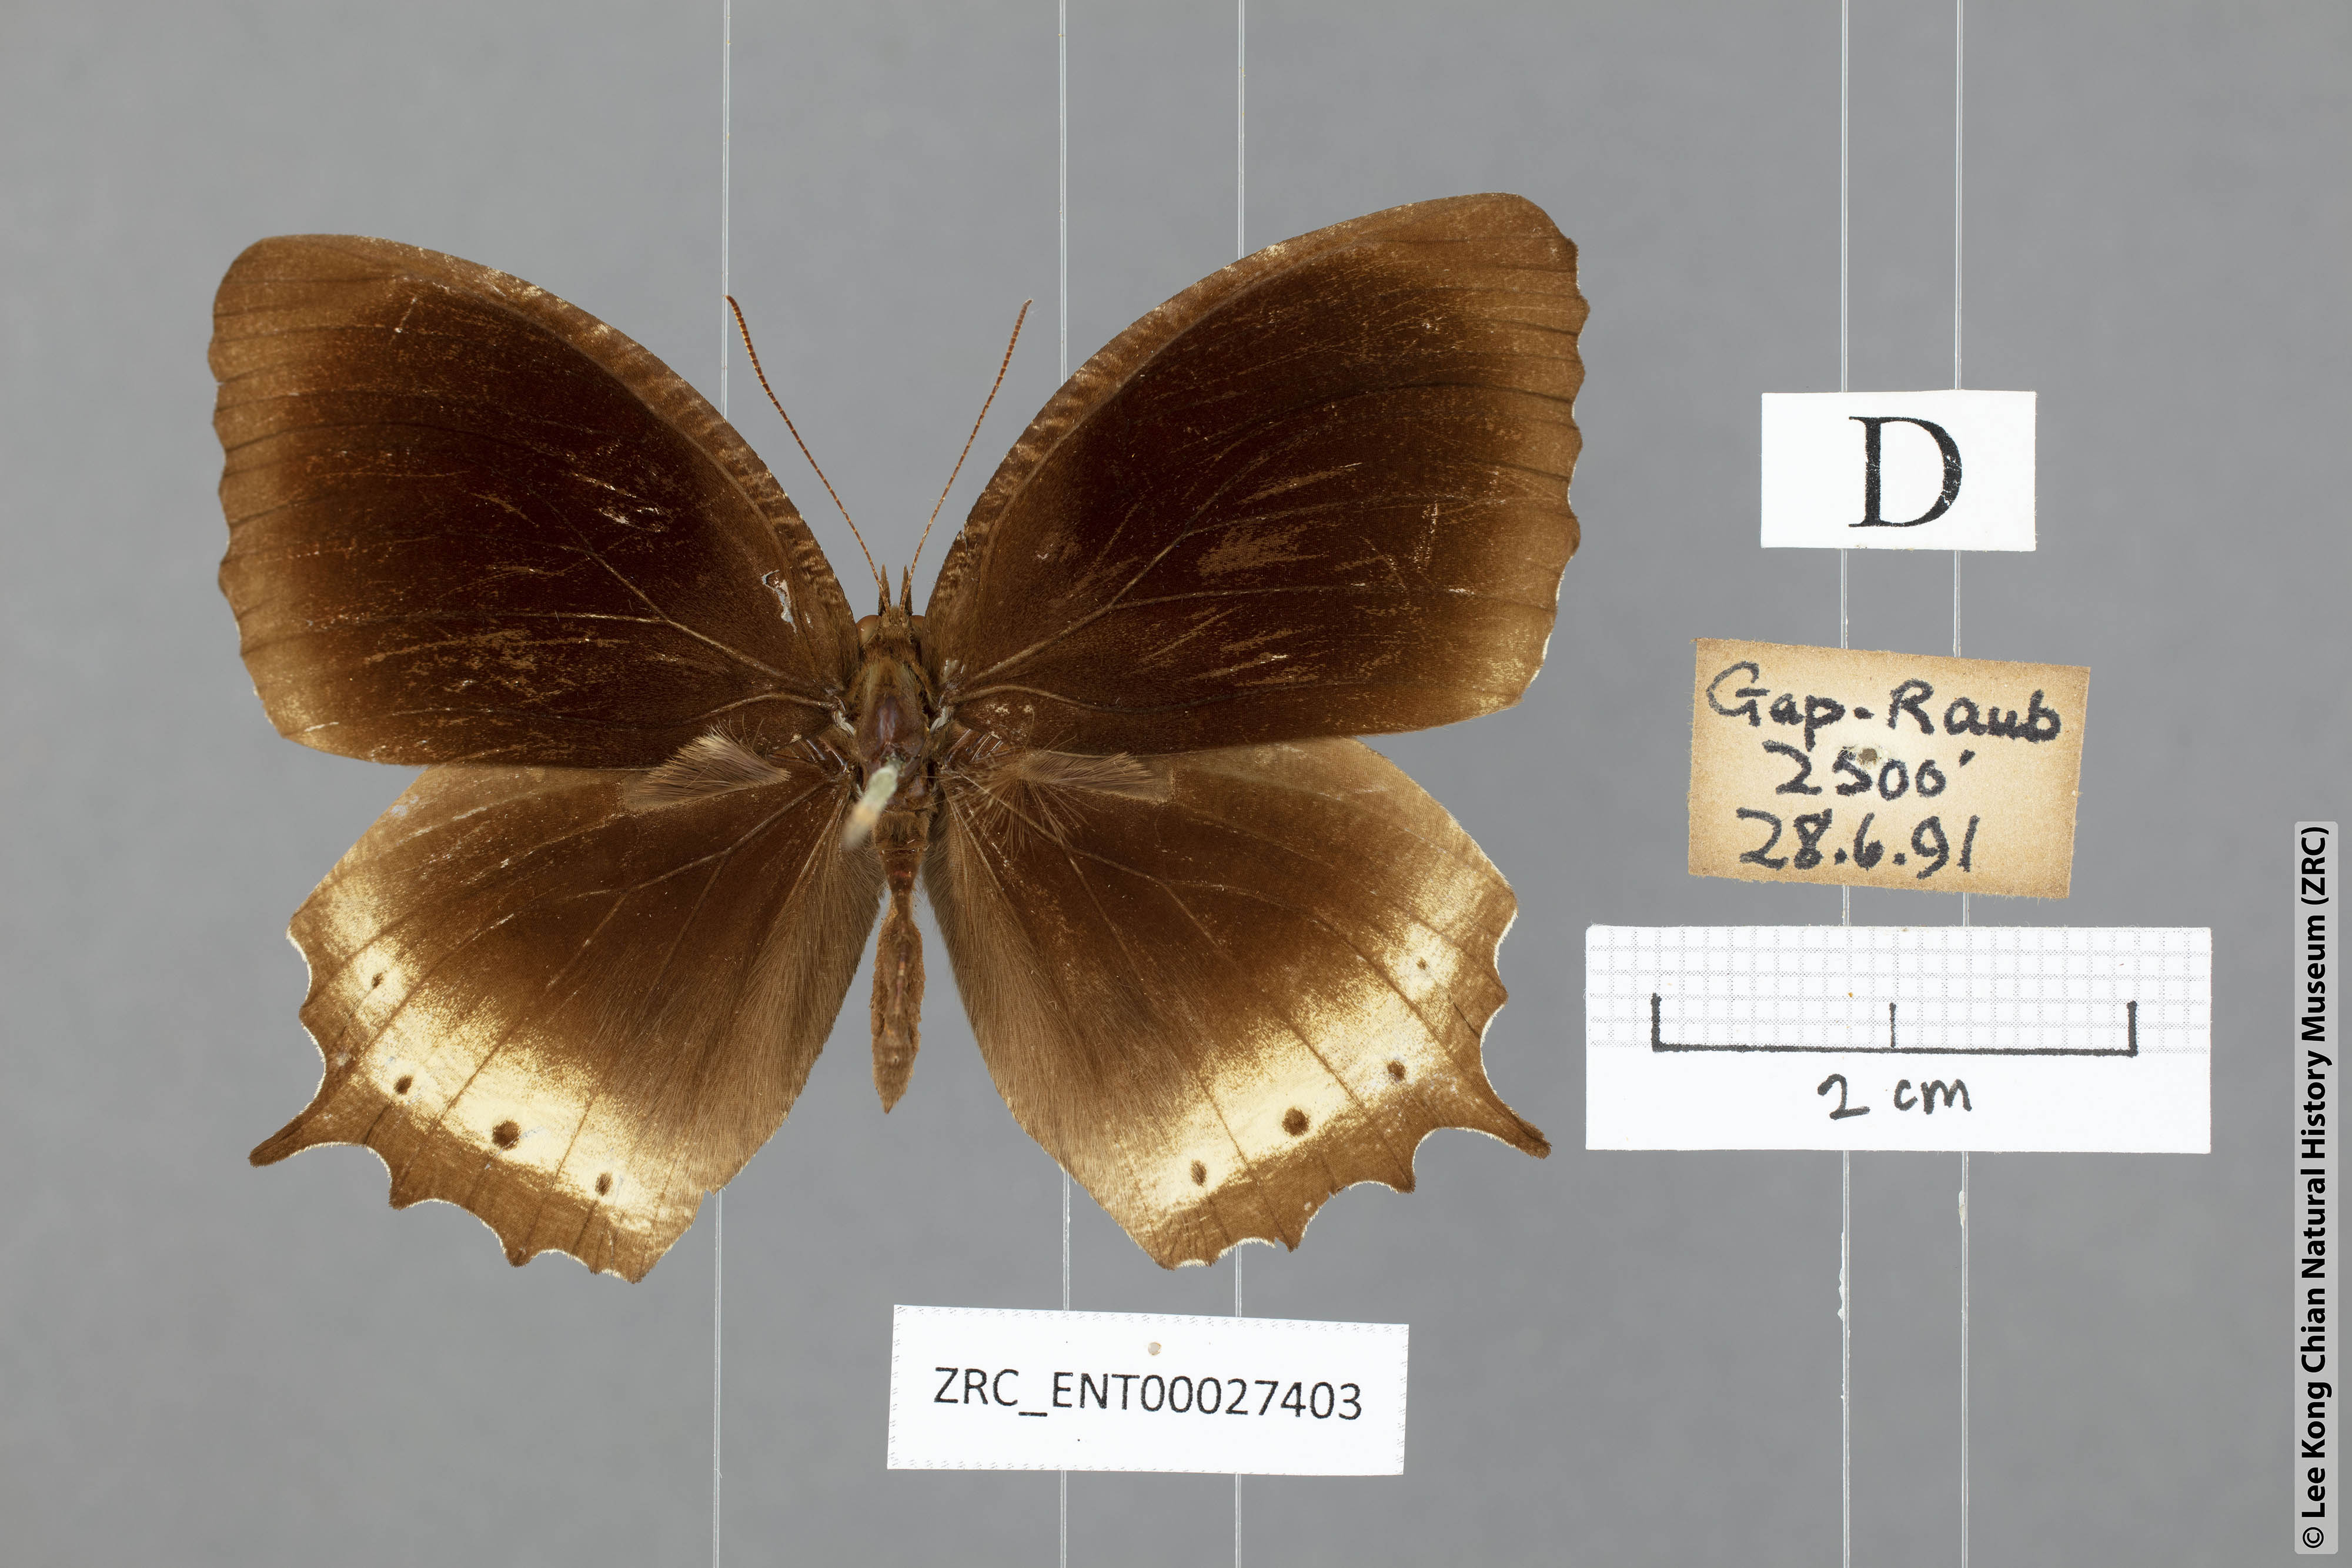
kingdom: Animalia
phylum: Arthropoda
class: Insecta
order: Lepidoptera
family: Nymphalidae
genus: Elymnias
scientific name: Elymnias panthera
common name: Tawny palmfly
